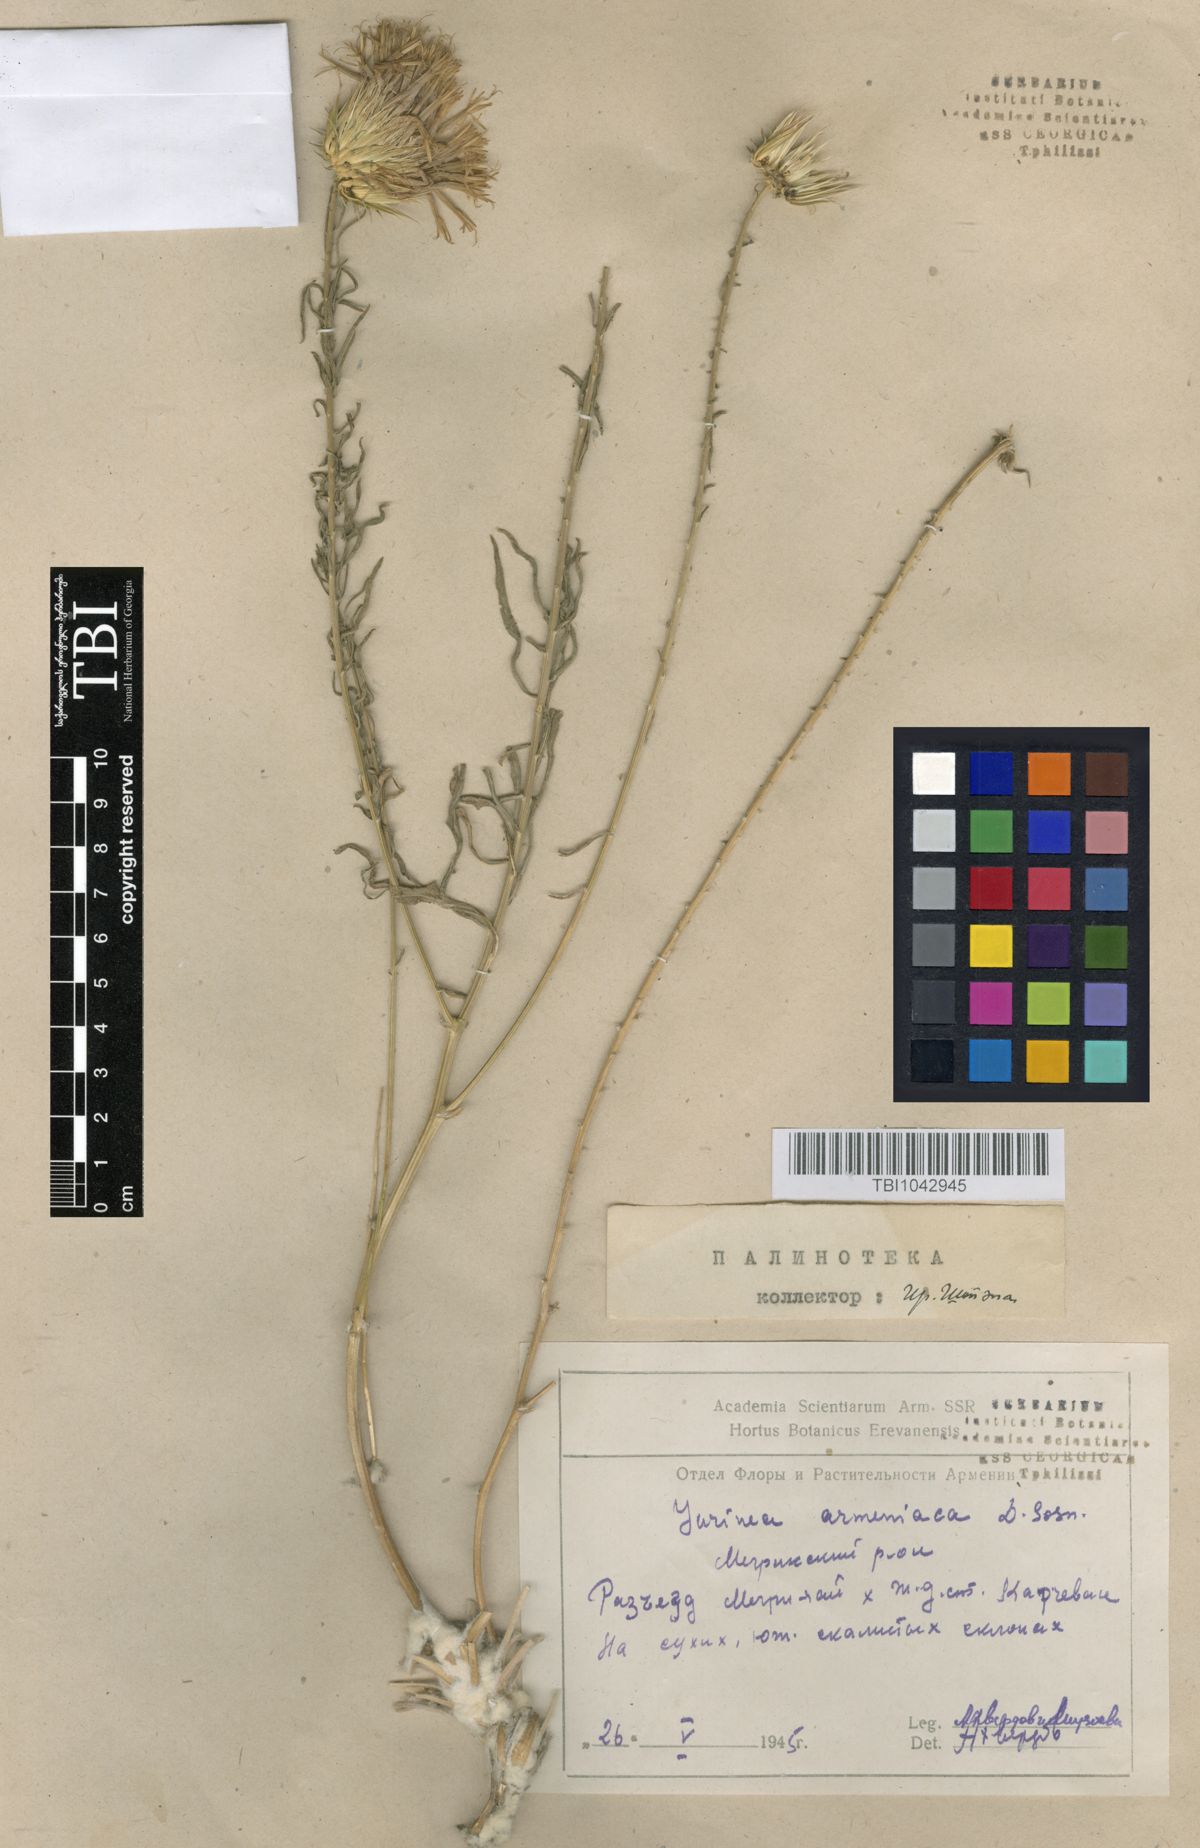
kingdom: Plantae
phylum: Tracheophyta
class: Magnoliopsida
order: Asterales
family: Asteraceae
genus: Jurinea
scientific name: Jurinea elegans
